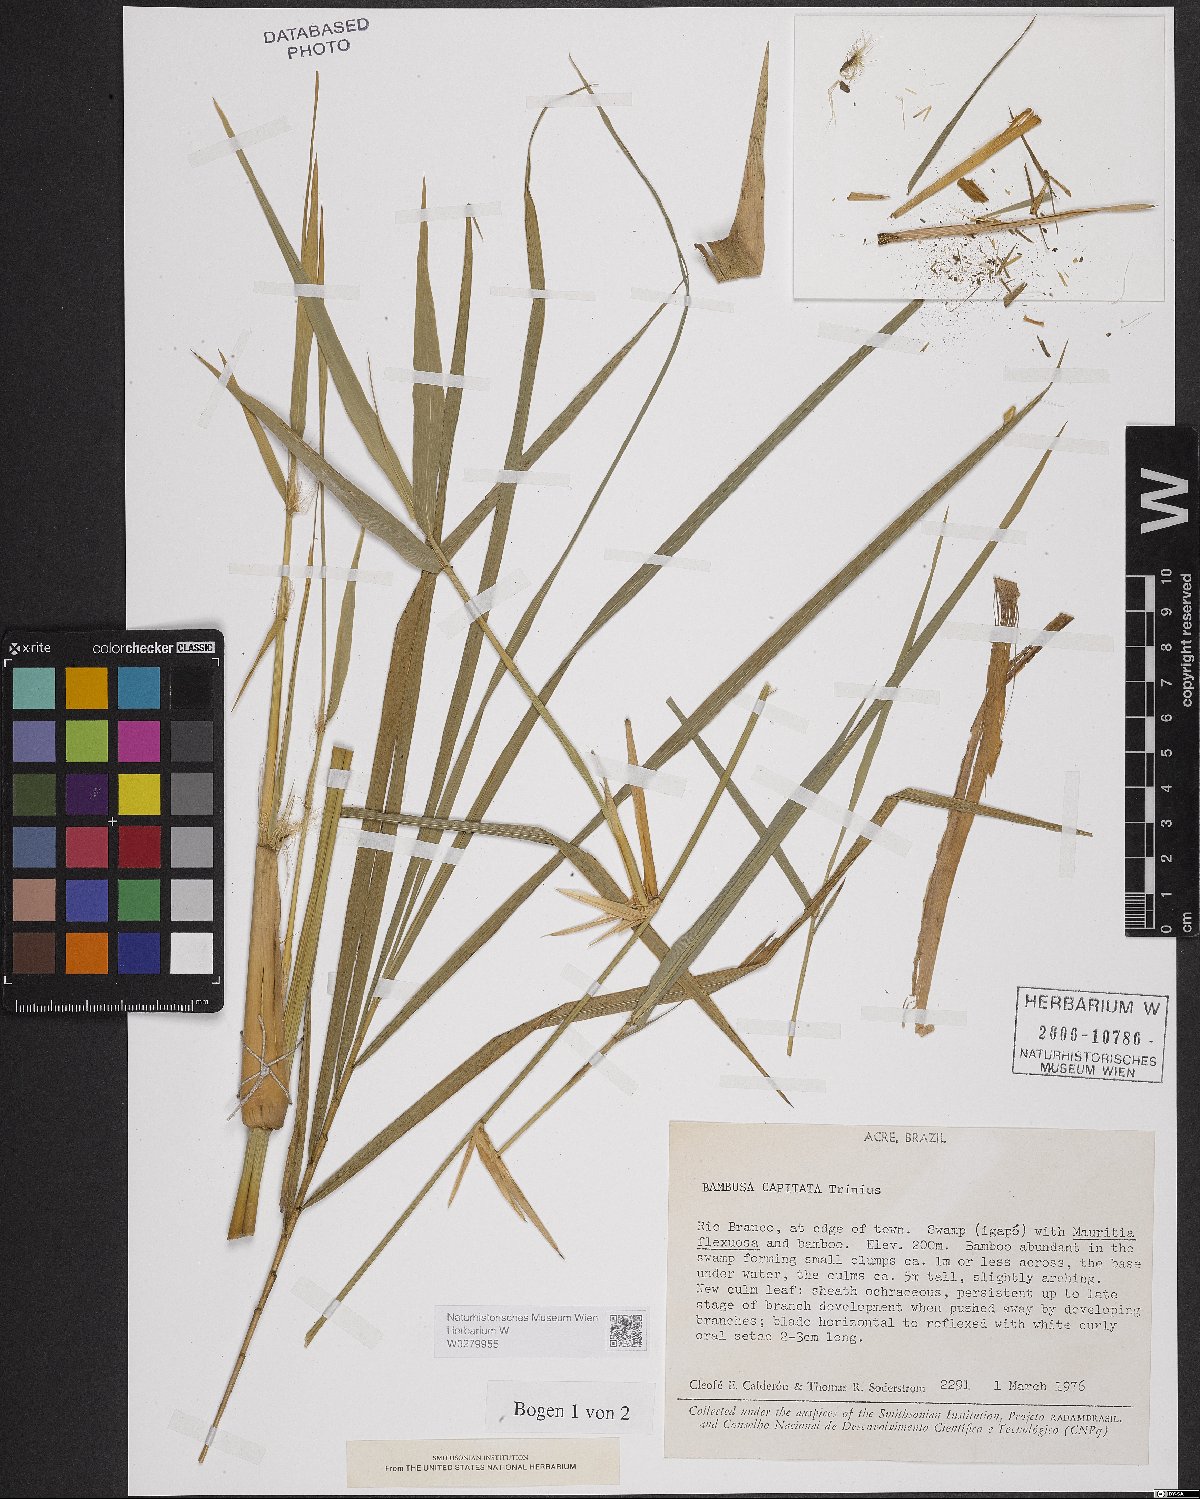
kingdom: Plantae
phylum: Tracheophyta
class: Liliopsida
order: Poales
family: Poaceae
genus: Eremocaulon
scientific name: Eremocaulon capitatum
